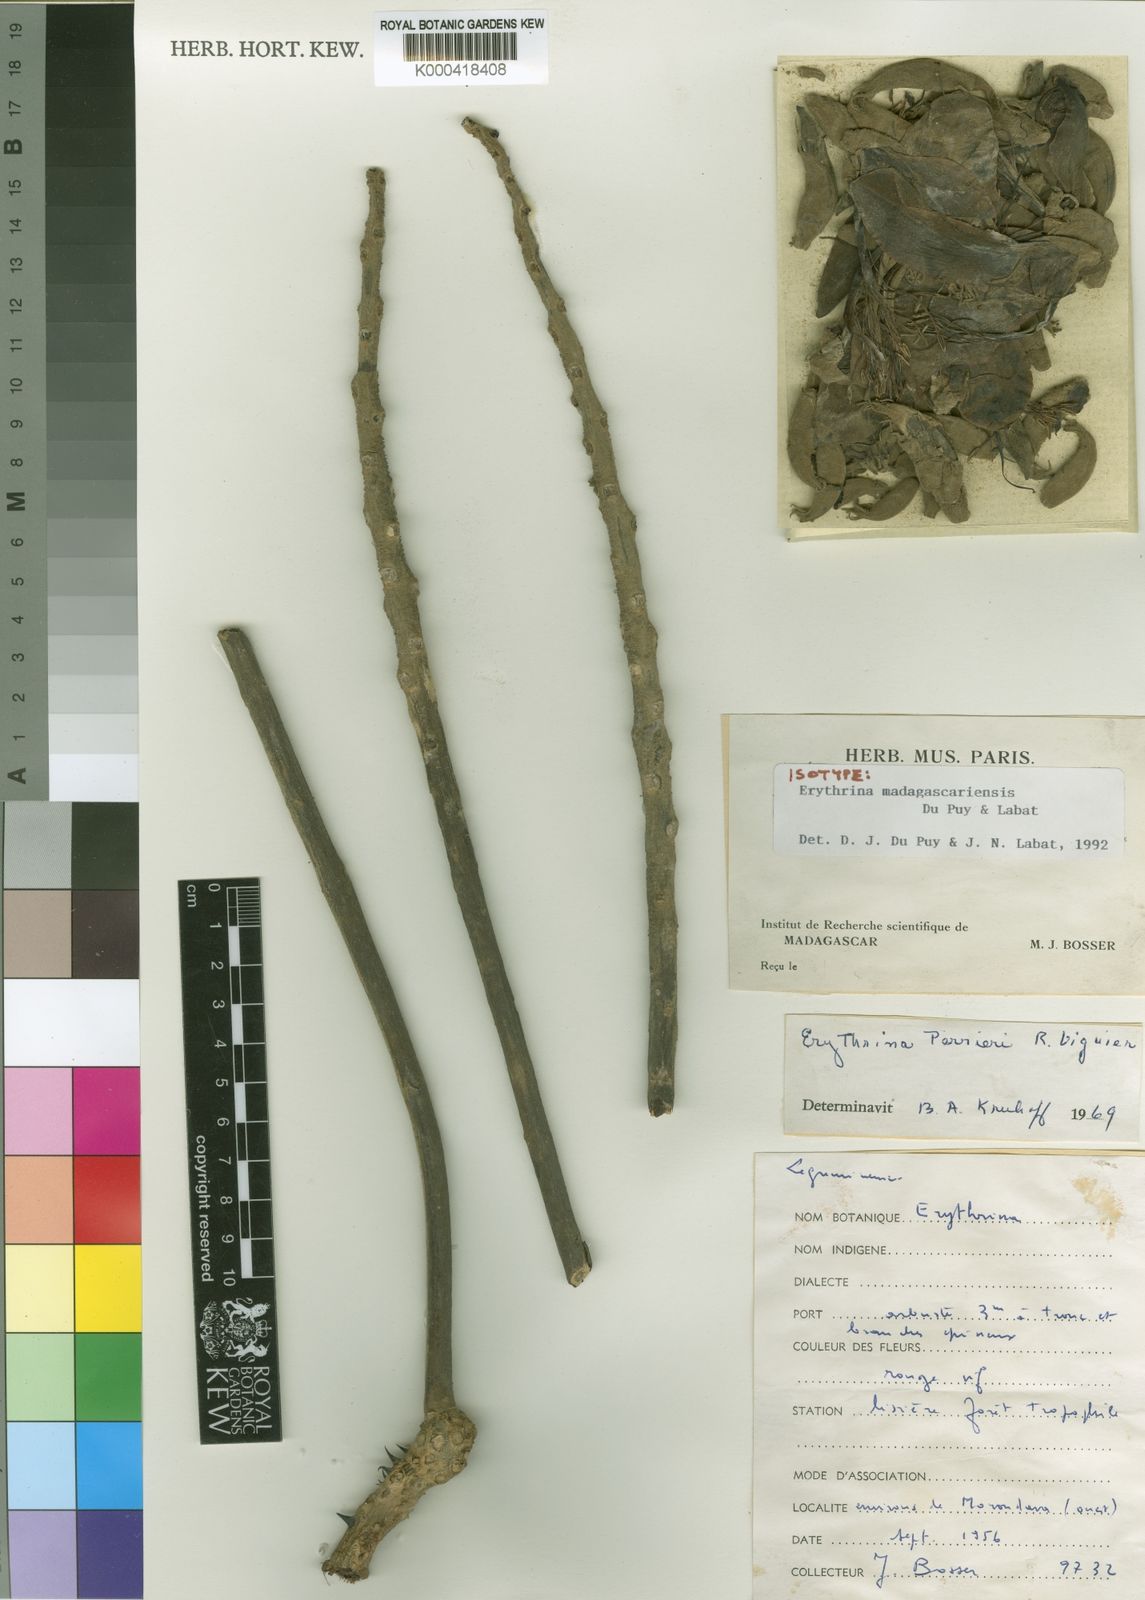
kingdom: Plantae
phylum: Tracheophyta
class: Magnoliopsida
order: Fabales
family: Fabaceae
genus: Erythrina
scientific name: Erythrina madagascariensis
